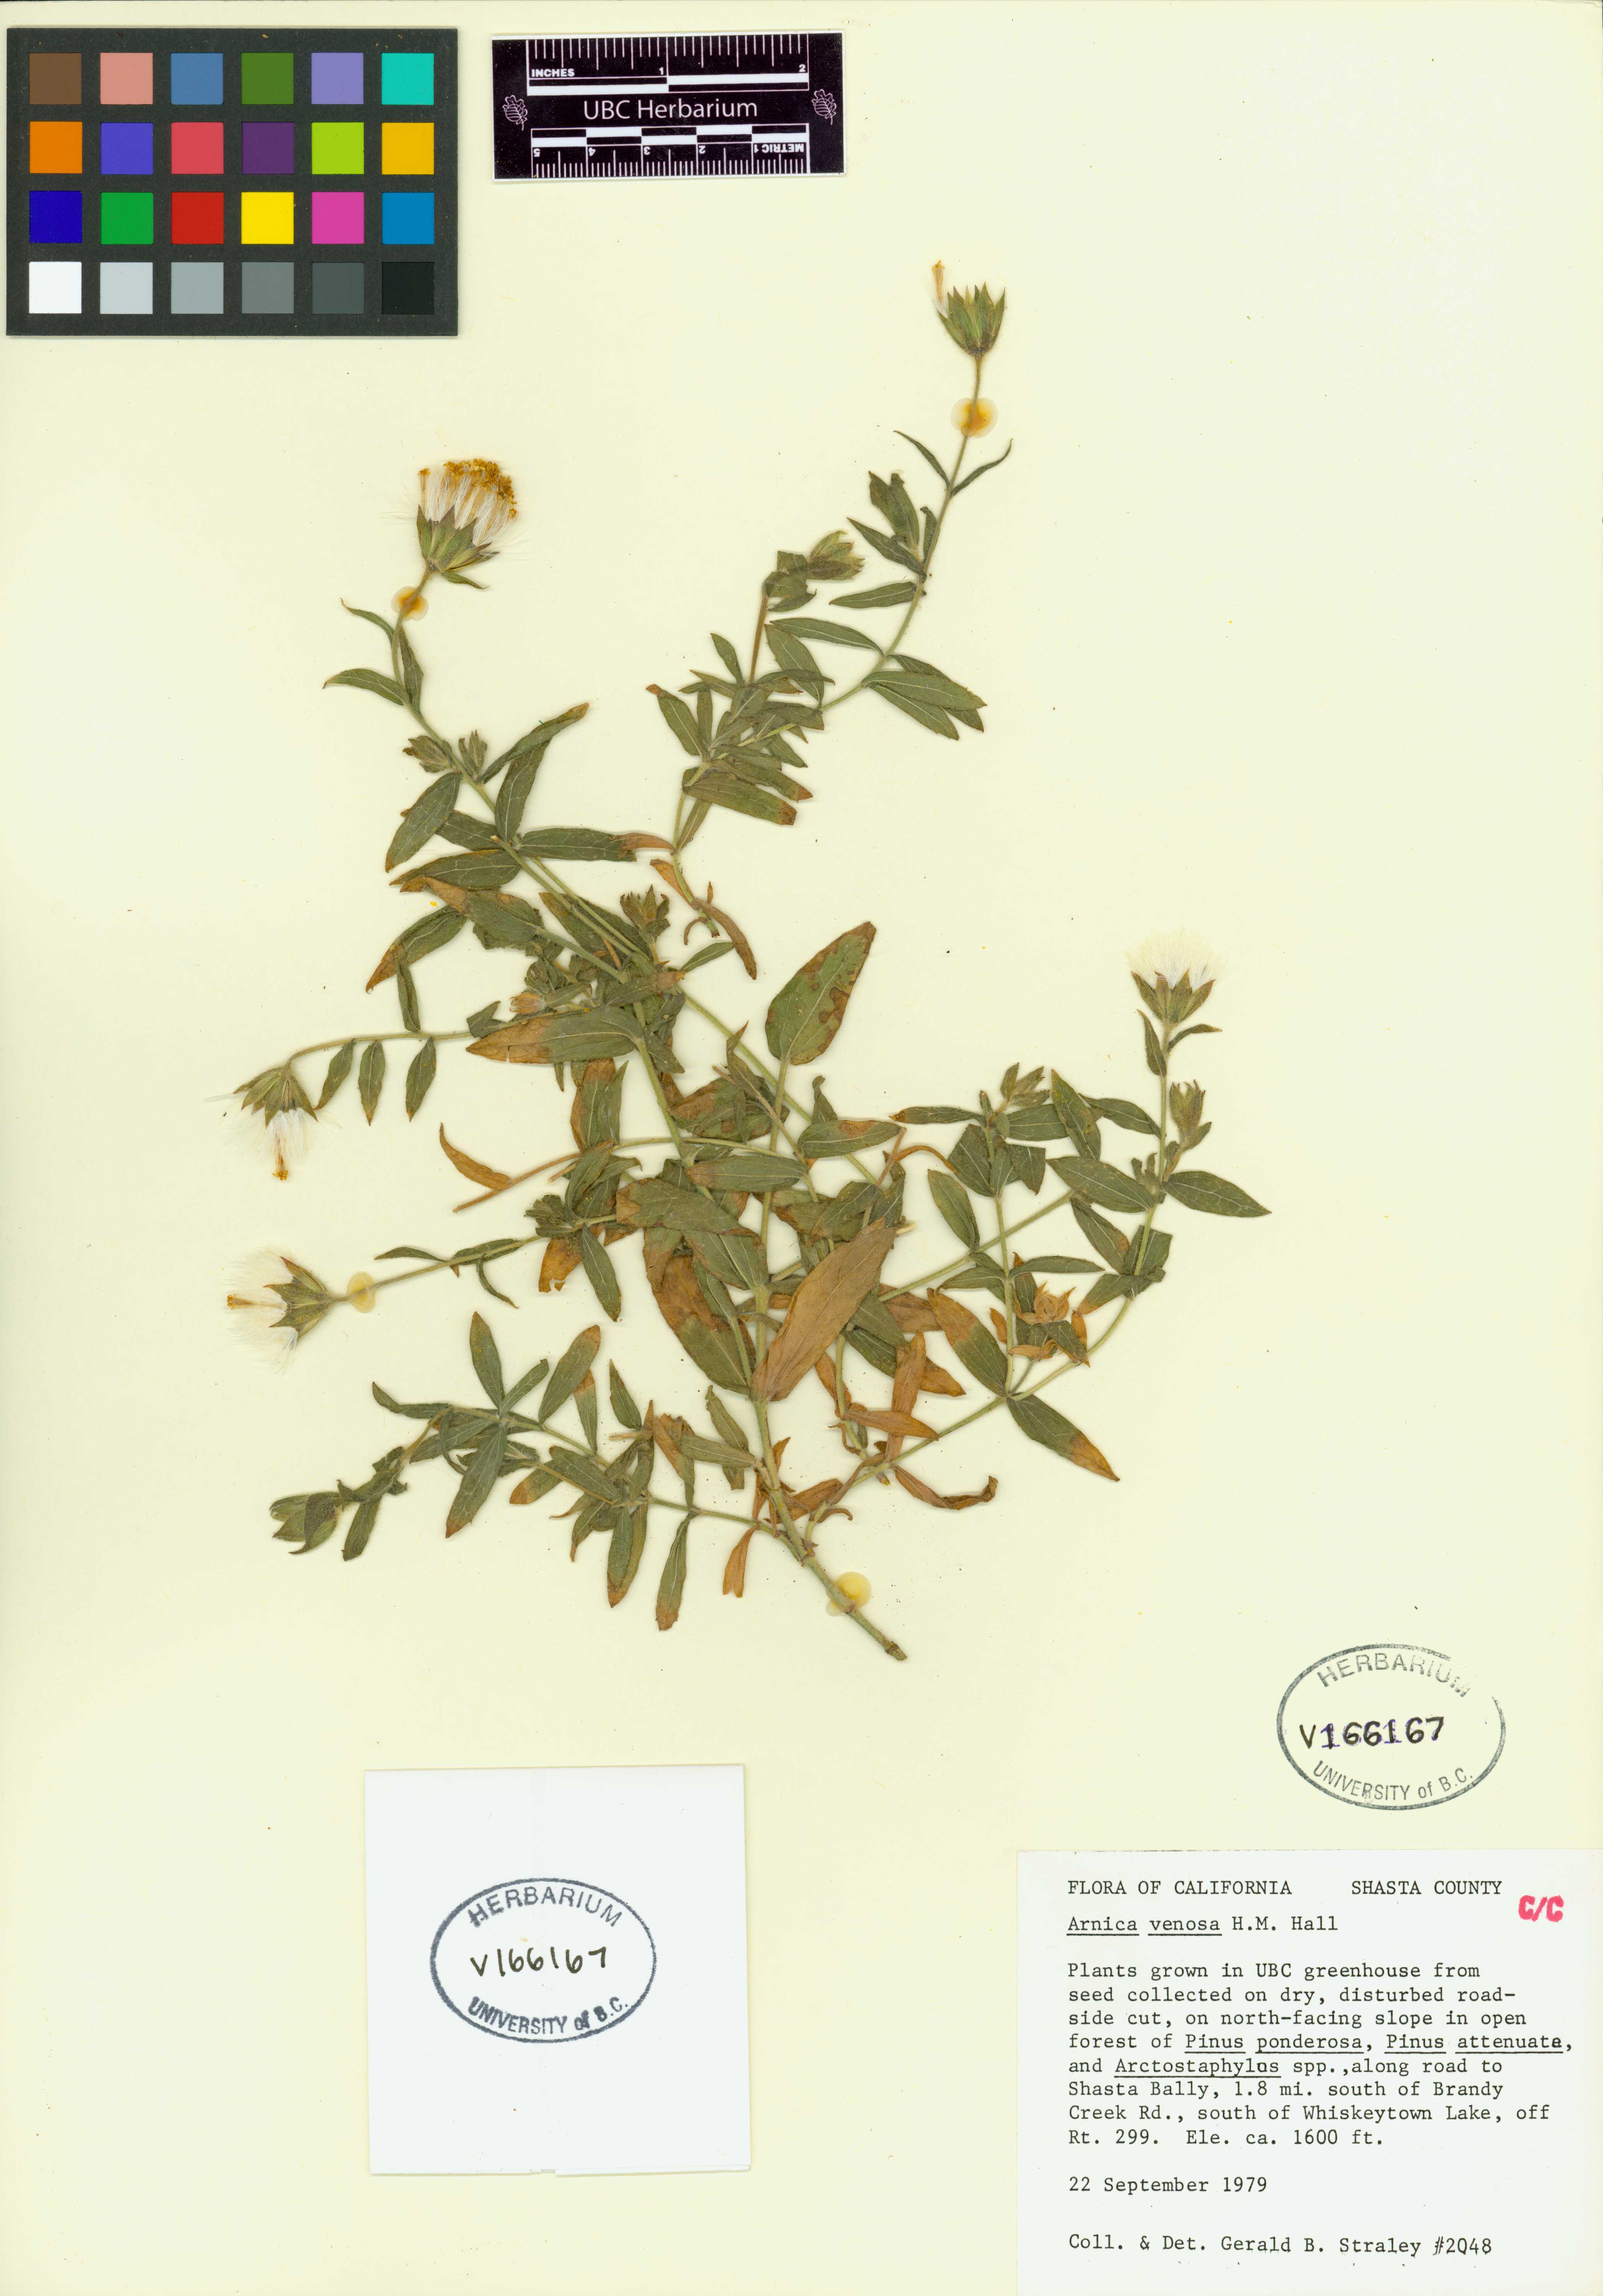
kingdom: Plantae
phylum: Tracheophyta
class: Magnoliopsida
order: Asterales
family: Asteraceae
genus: Arnica
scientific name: Arnica venosa
